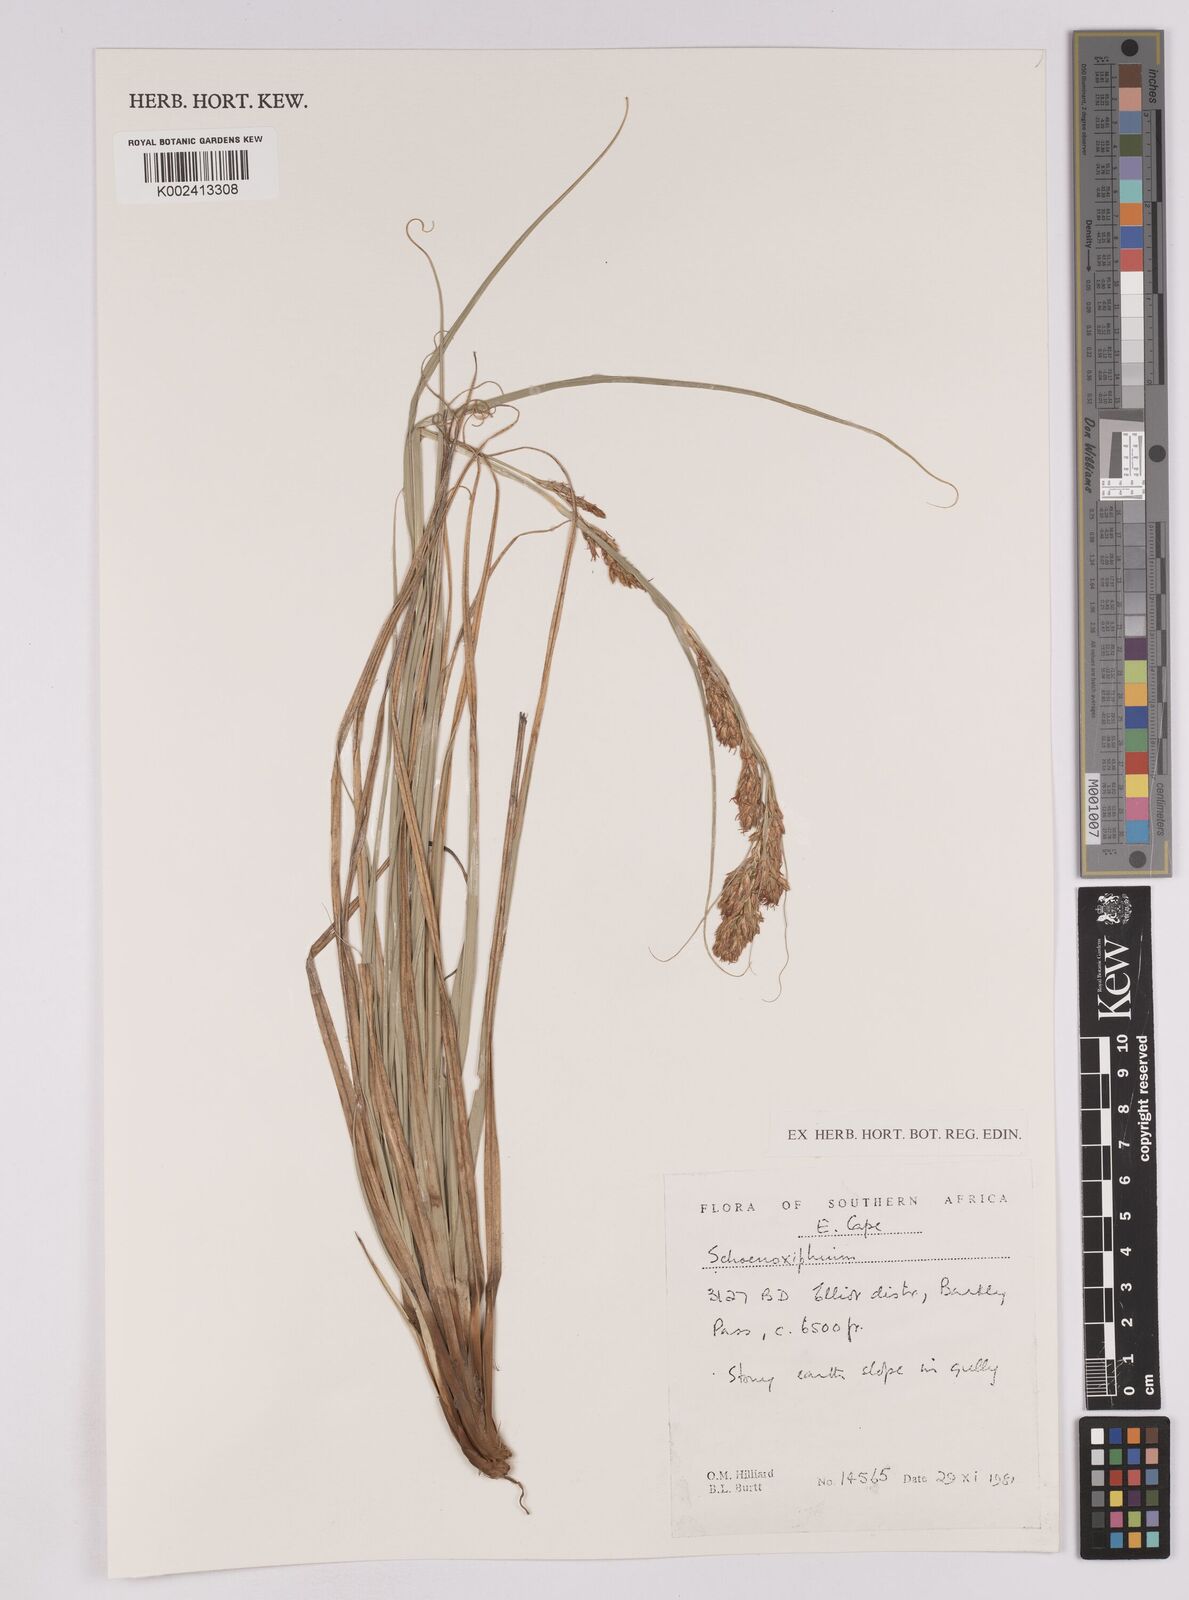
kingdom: Plantae
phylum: Tracheophyta
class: Liliopsida
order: Poales
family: Cyperaceae
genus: Carex
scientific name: Carex
